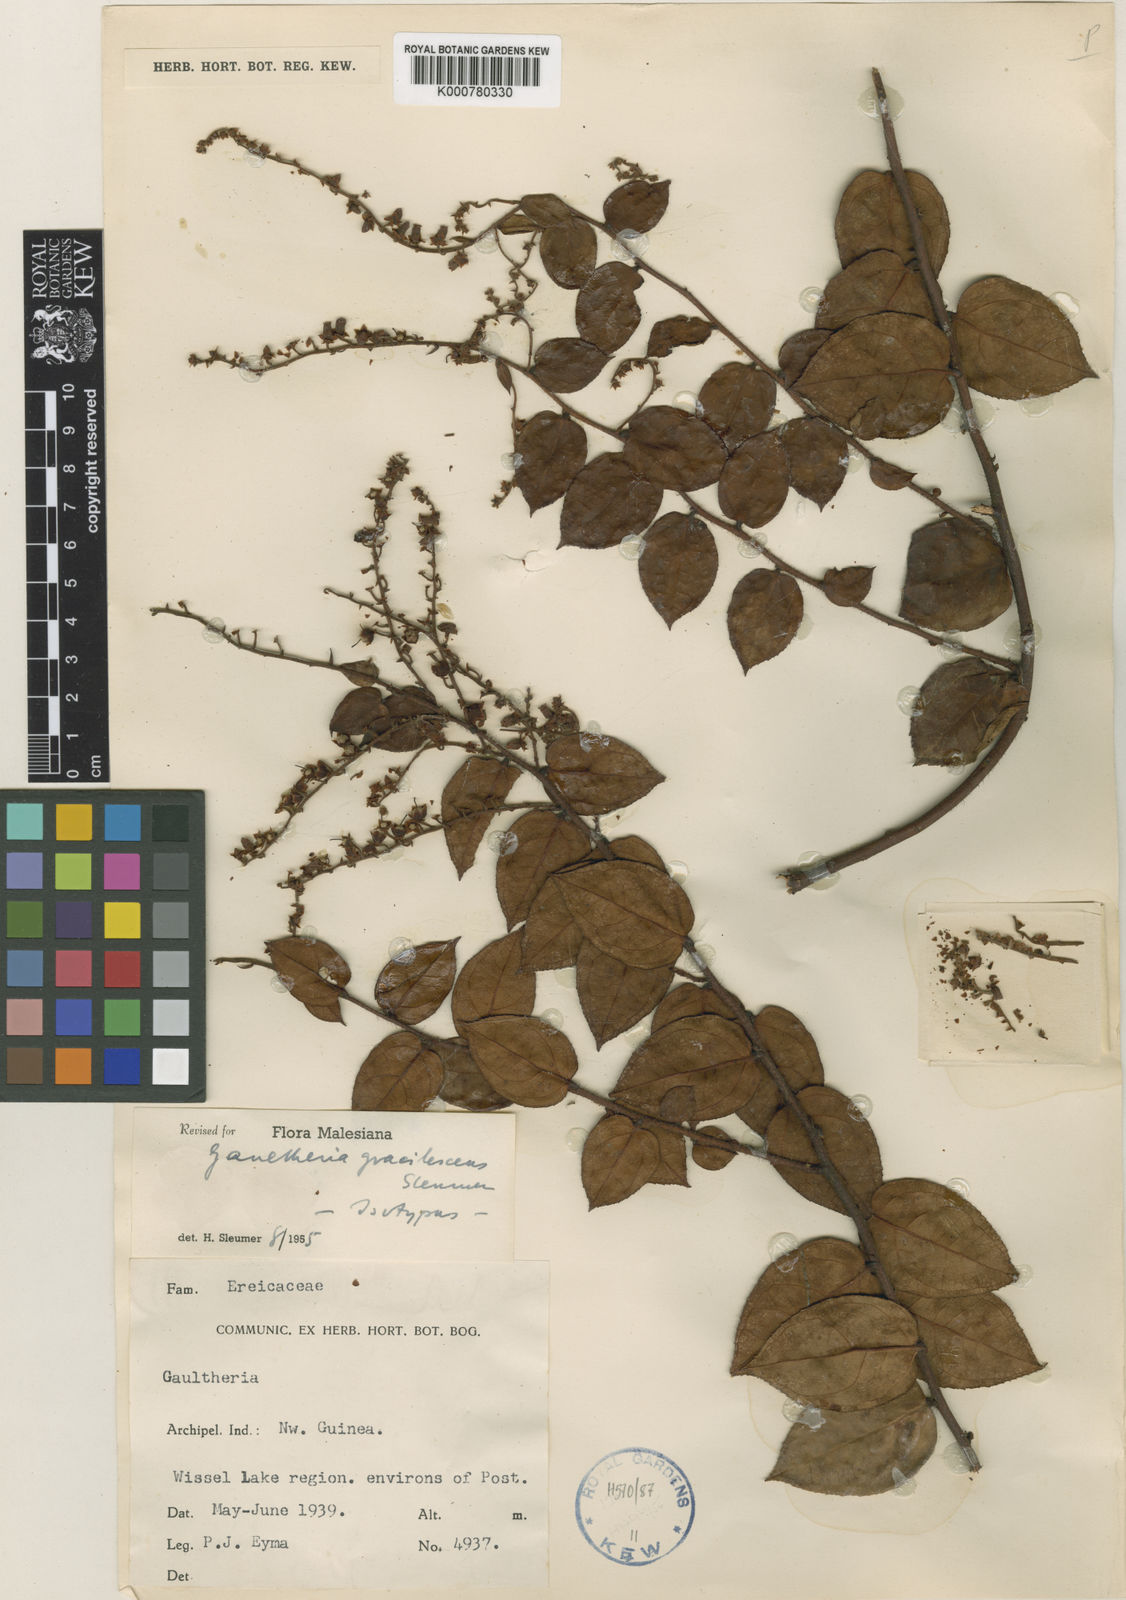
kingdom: Plantae
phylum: Tracheophyta
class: Magnoliopsida
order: Ericales
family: Ericaceae
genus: Gaultheria
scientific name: Gaultheria gracilescens
